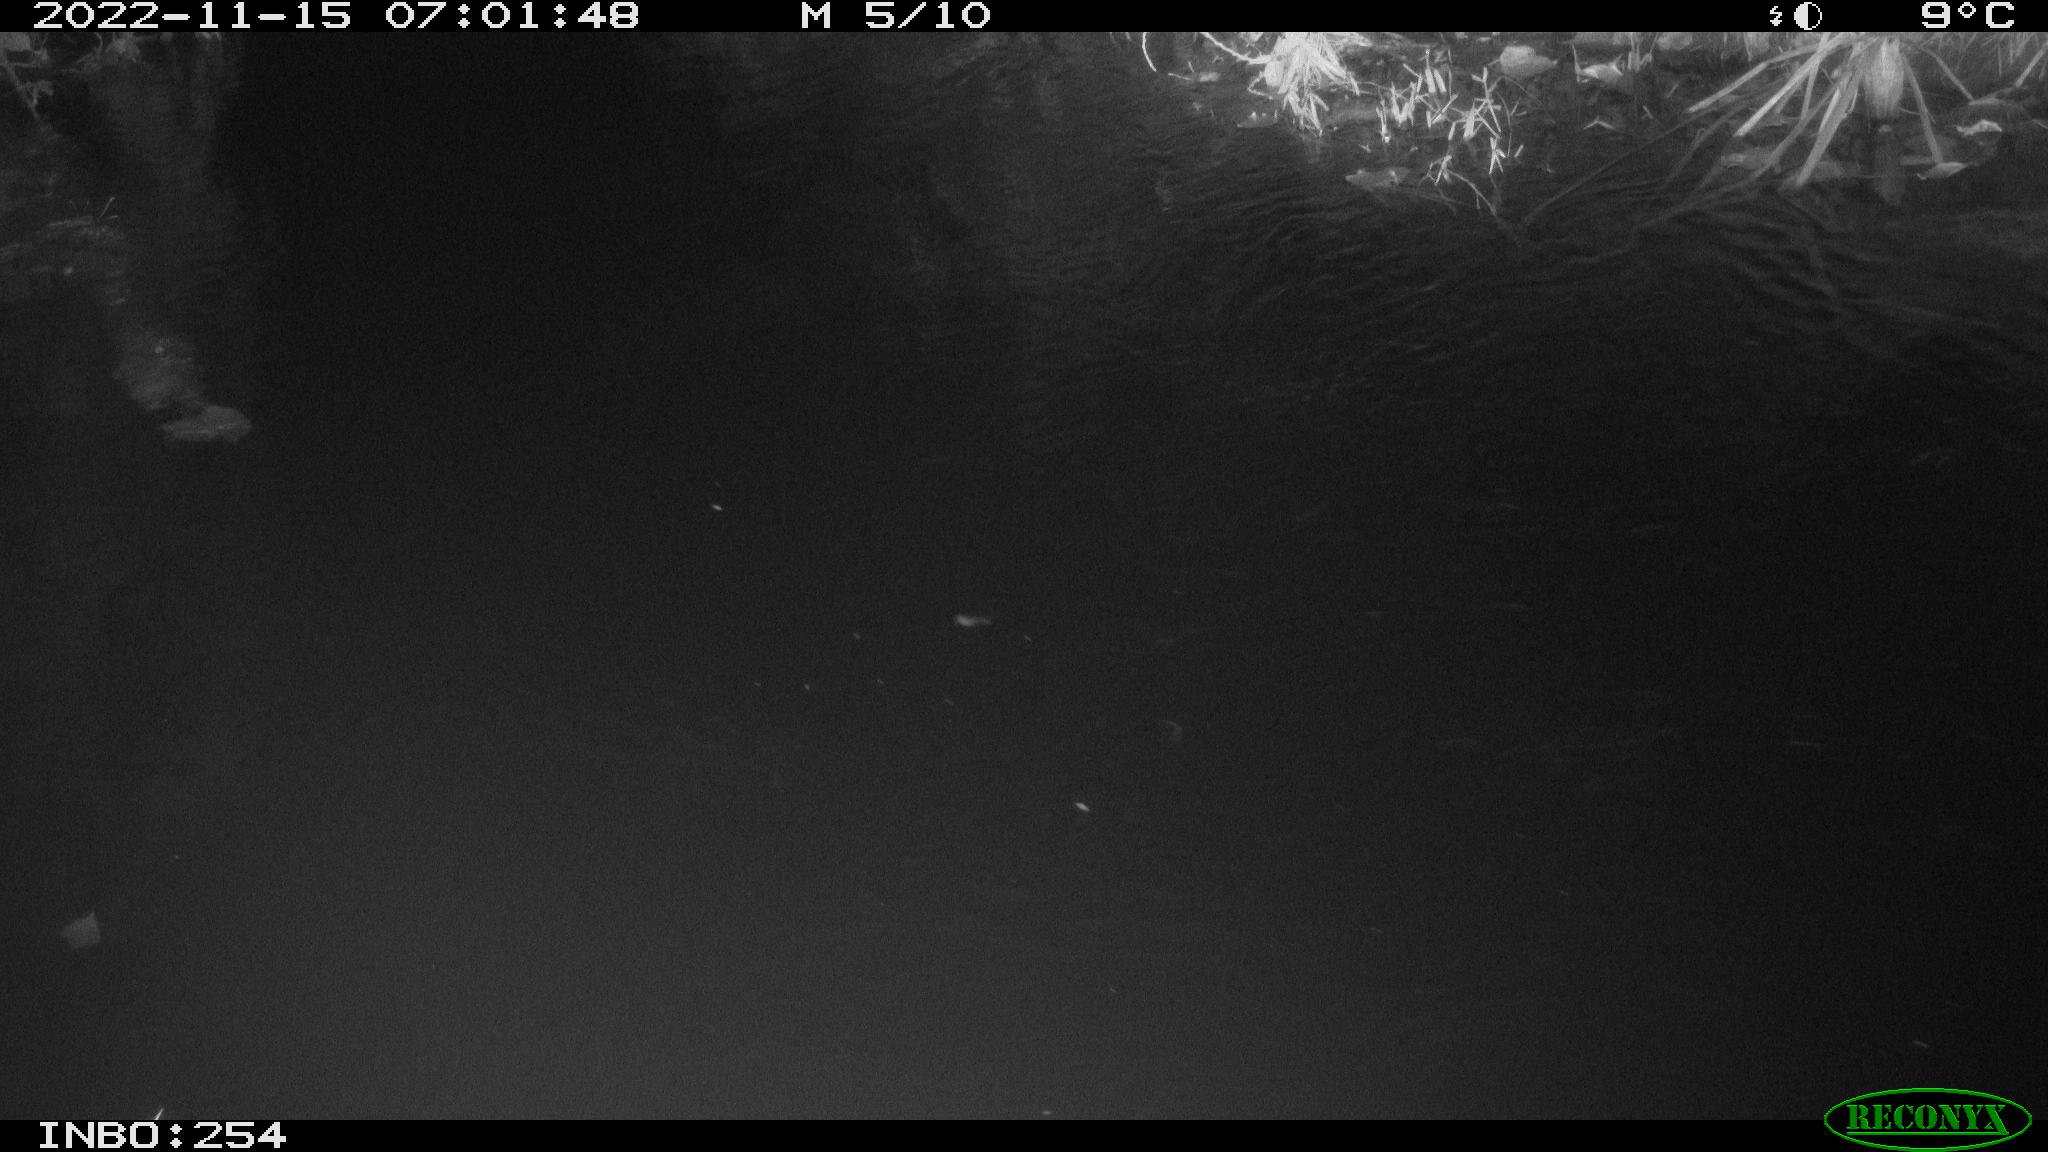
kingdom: Animalia
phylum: Chordata
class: Aves
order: Anseriformes
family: Anatidae
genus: Anas
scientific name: Anas
